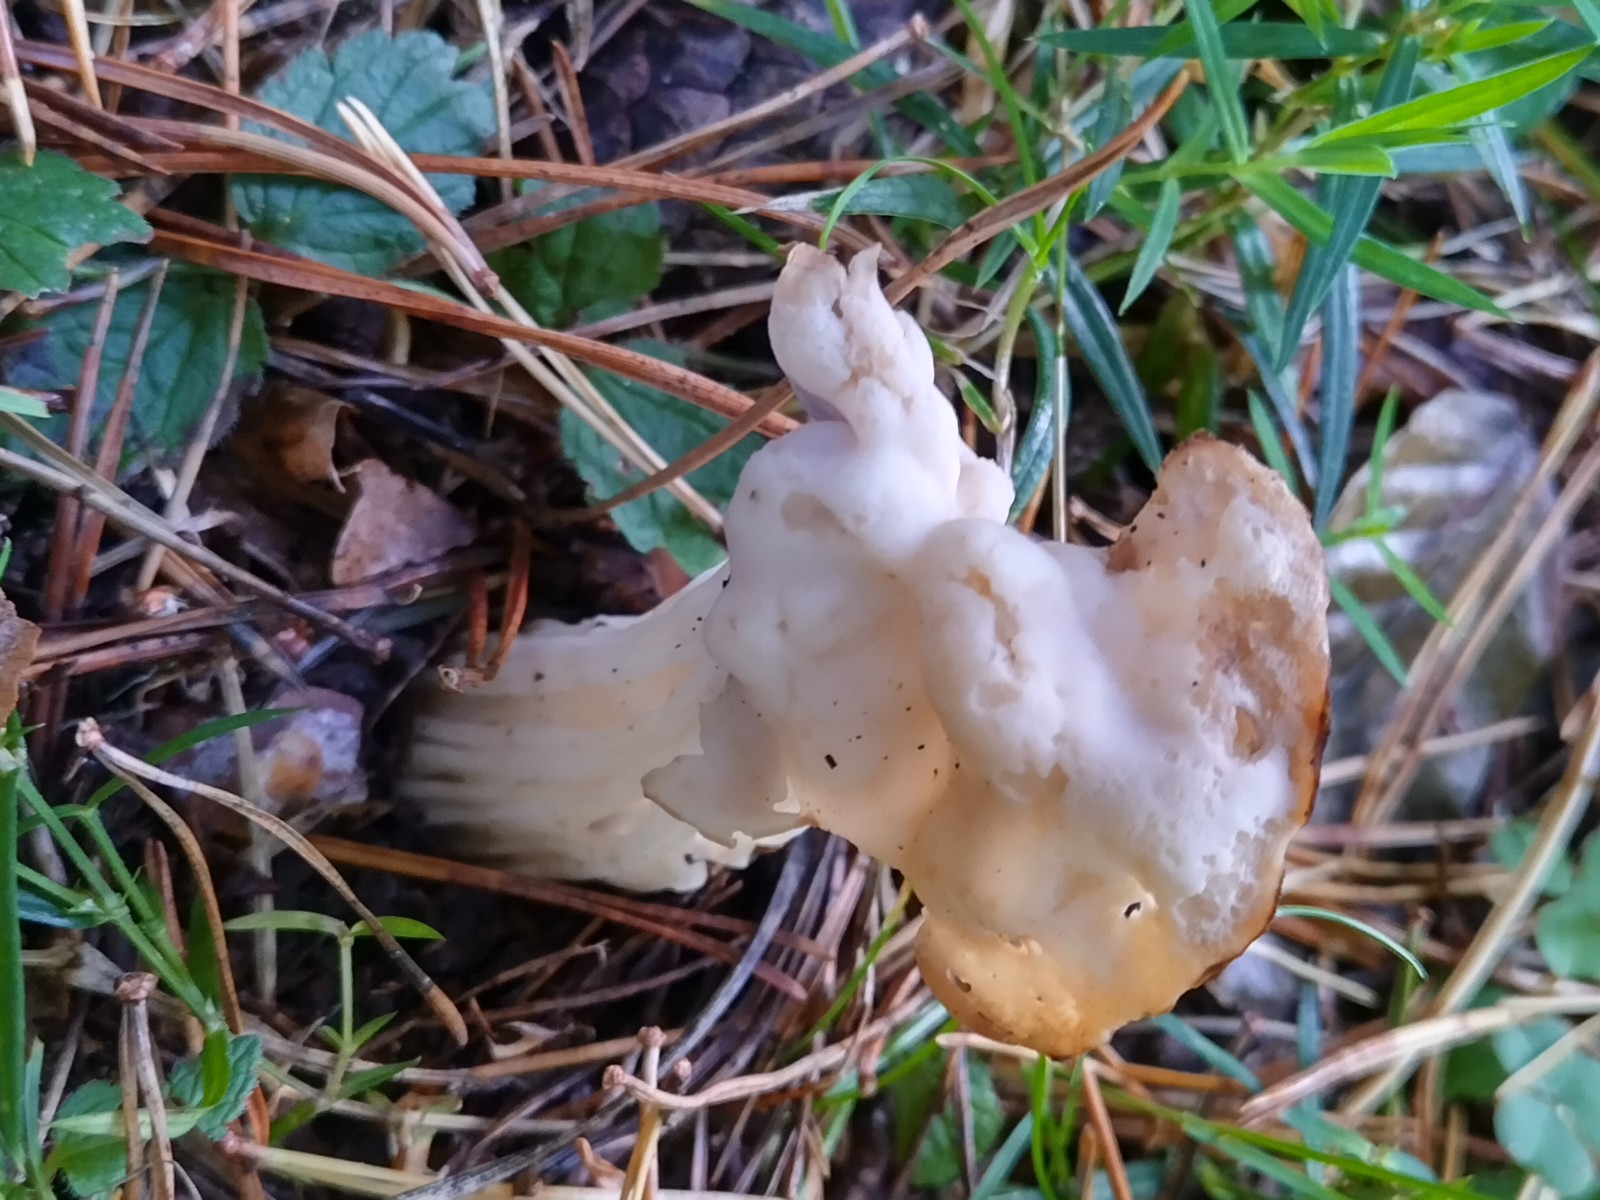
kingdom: Fungi
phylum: Ascomycota
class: Pezizomycetes
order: Pezizales
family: Helvellaceae
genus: Helvella
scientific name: Helvella crispa
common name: kruset foldhat
